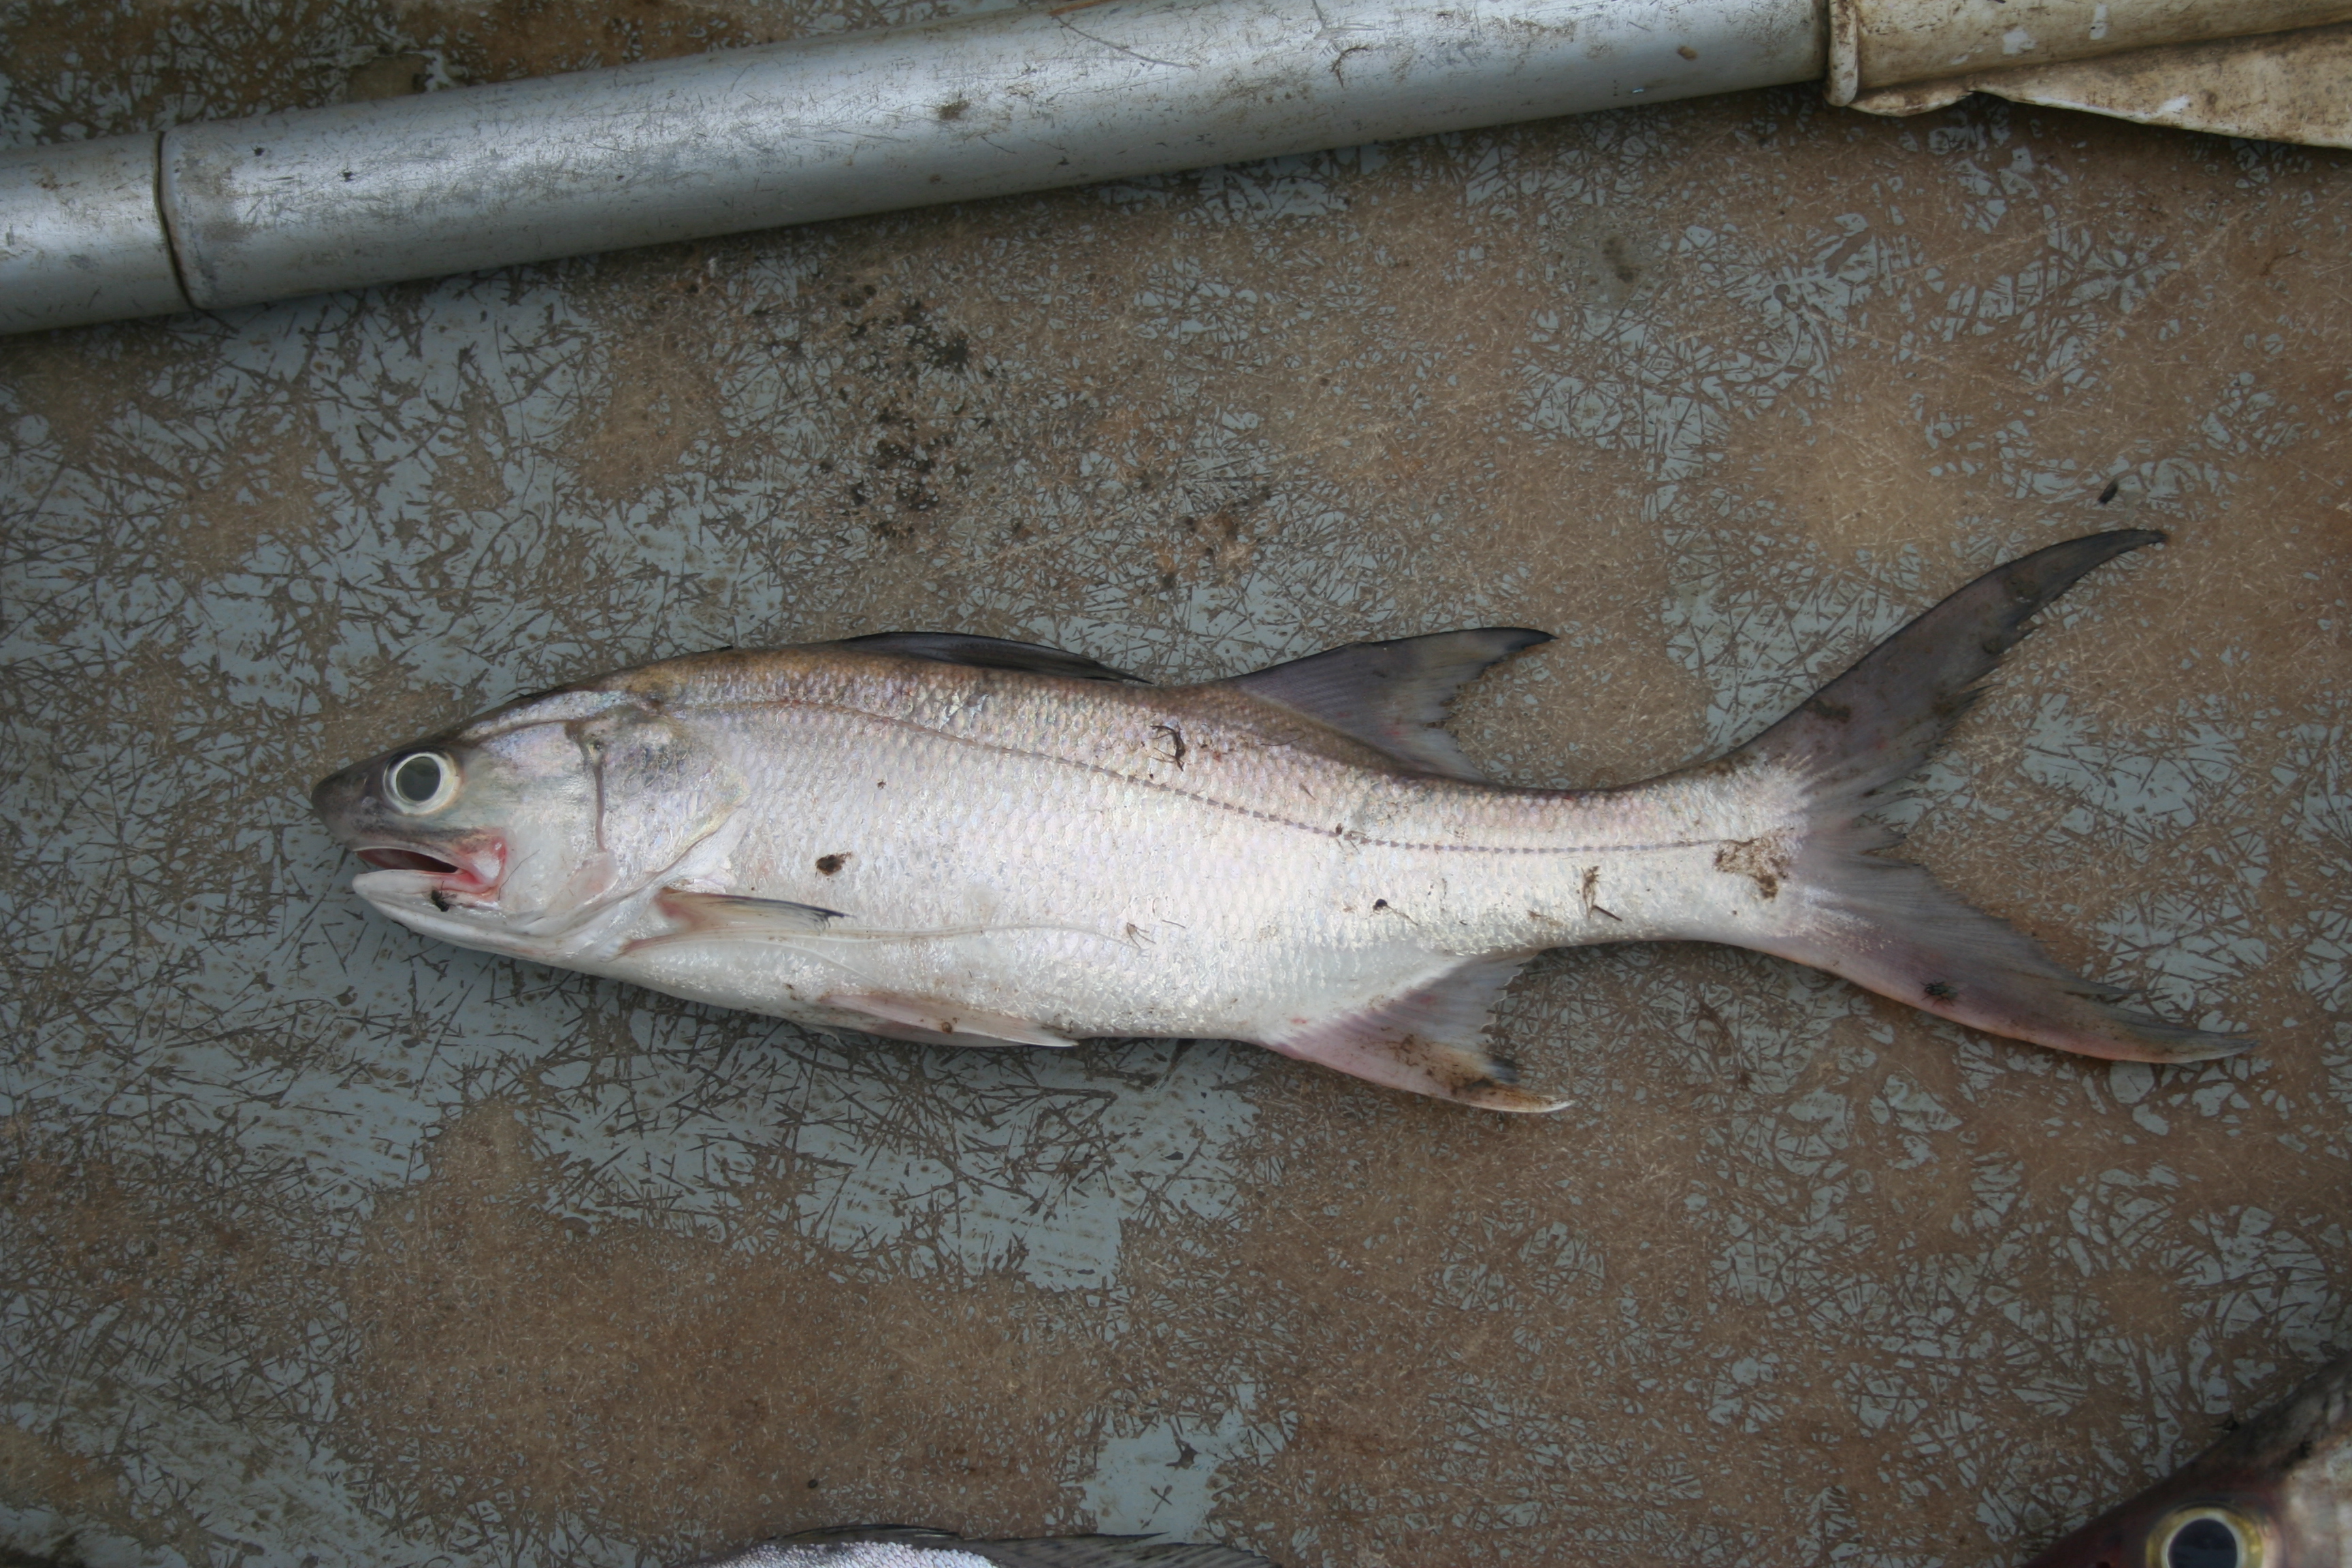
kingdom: Animalia
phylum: Chordata
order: Perciformes
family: Polynemidae
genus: Galeoides
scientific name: Galeoides decadactylus
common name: Lesser african threadfin
